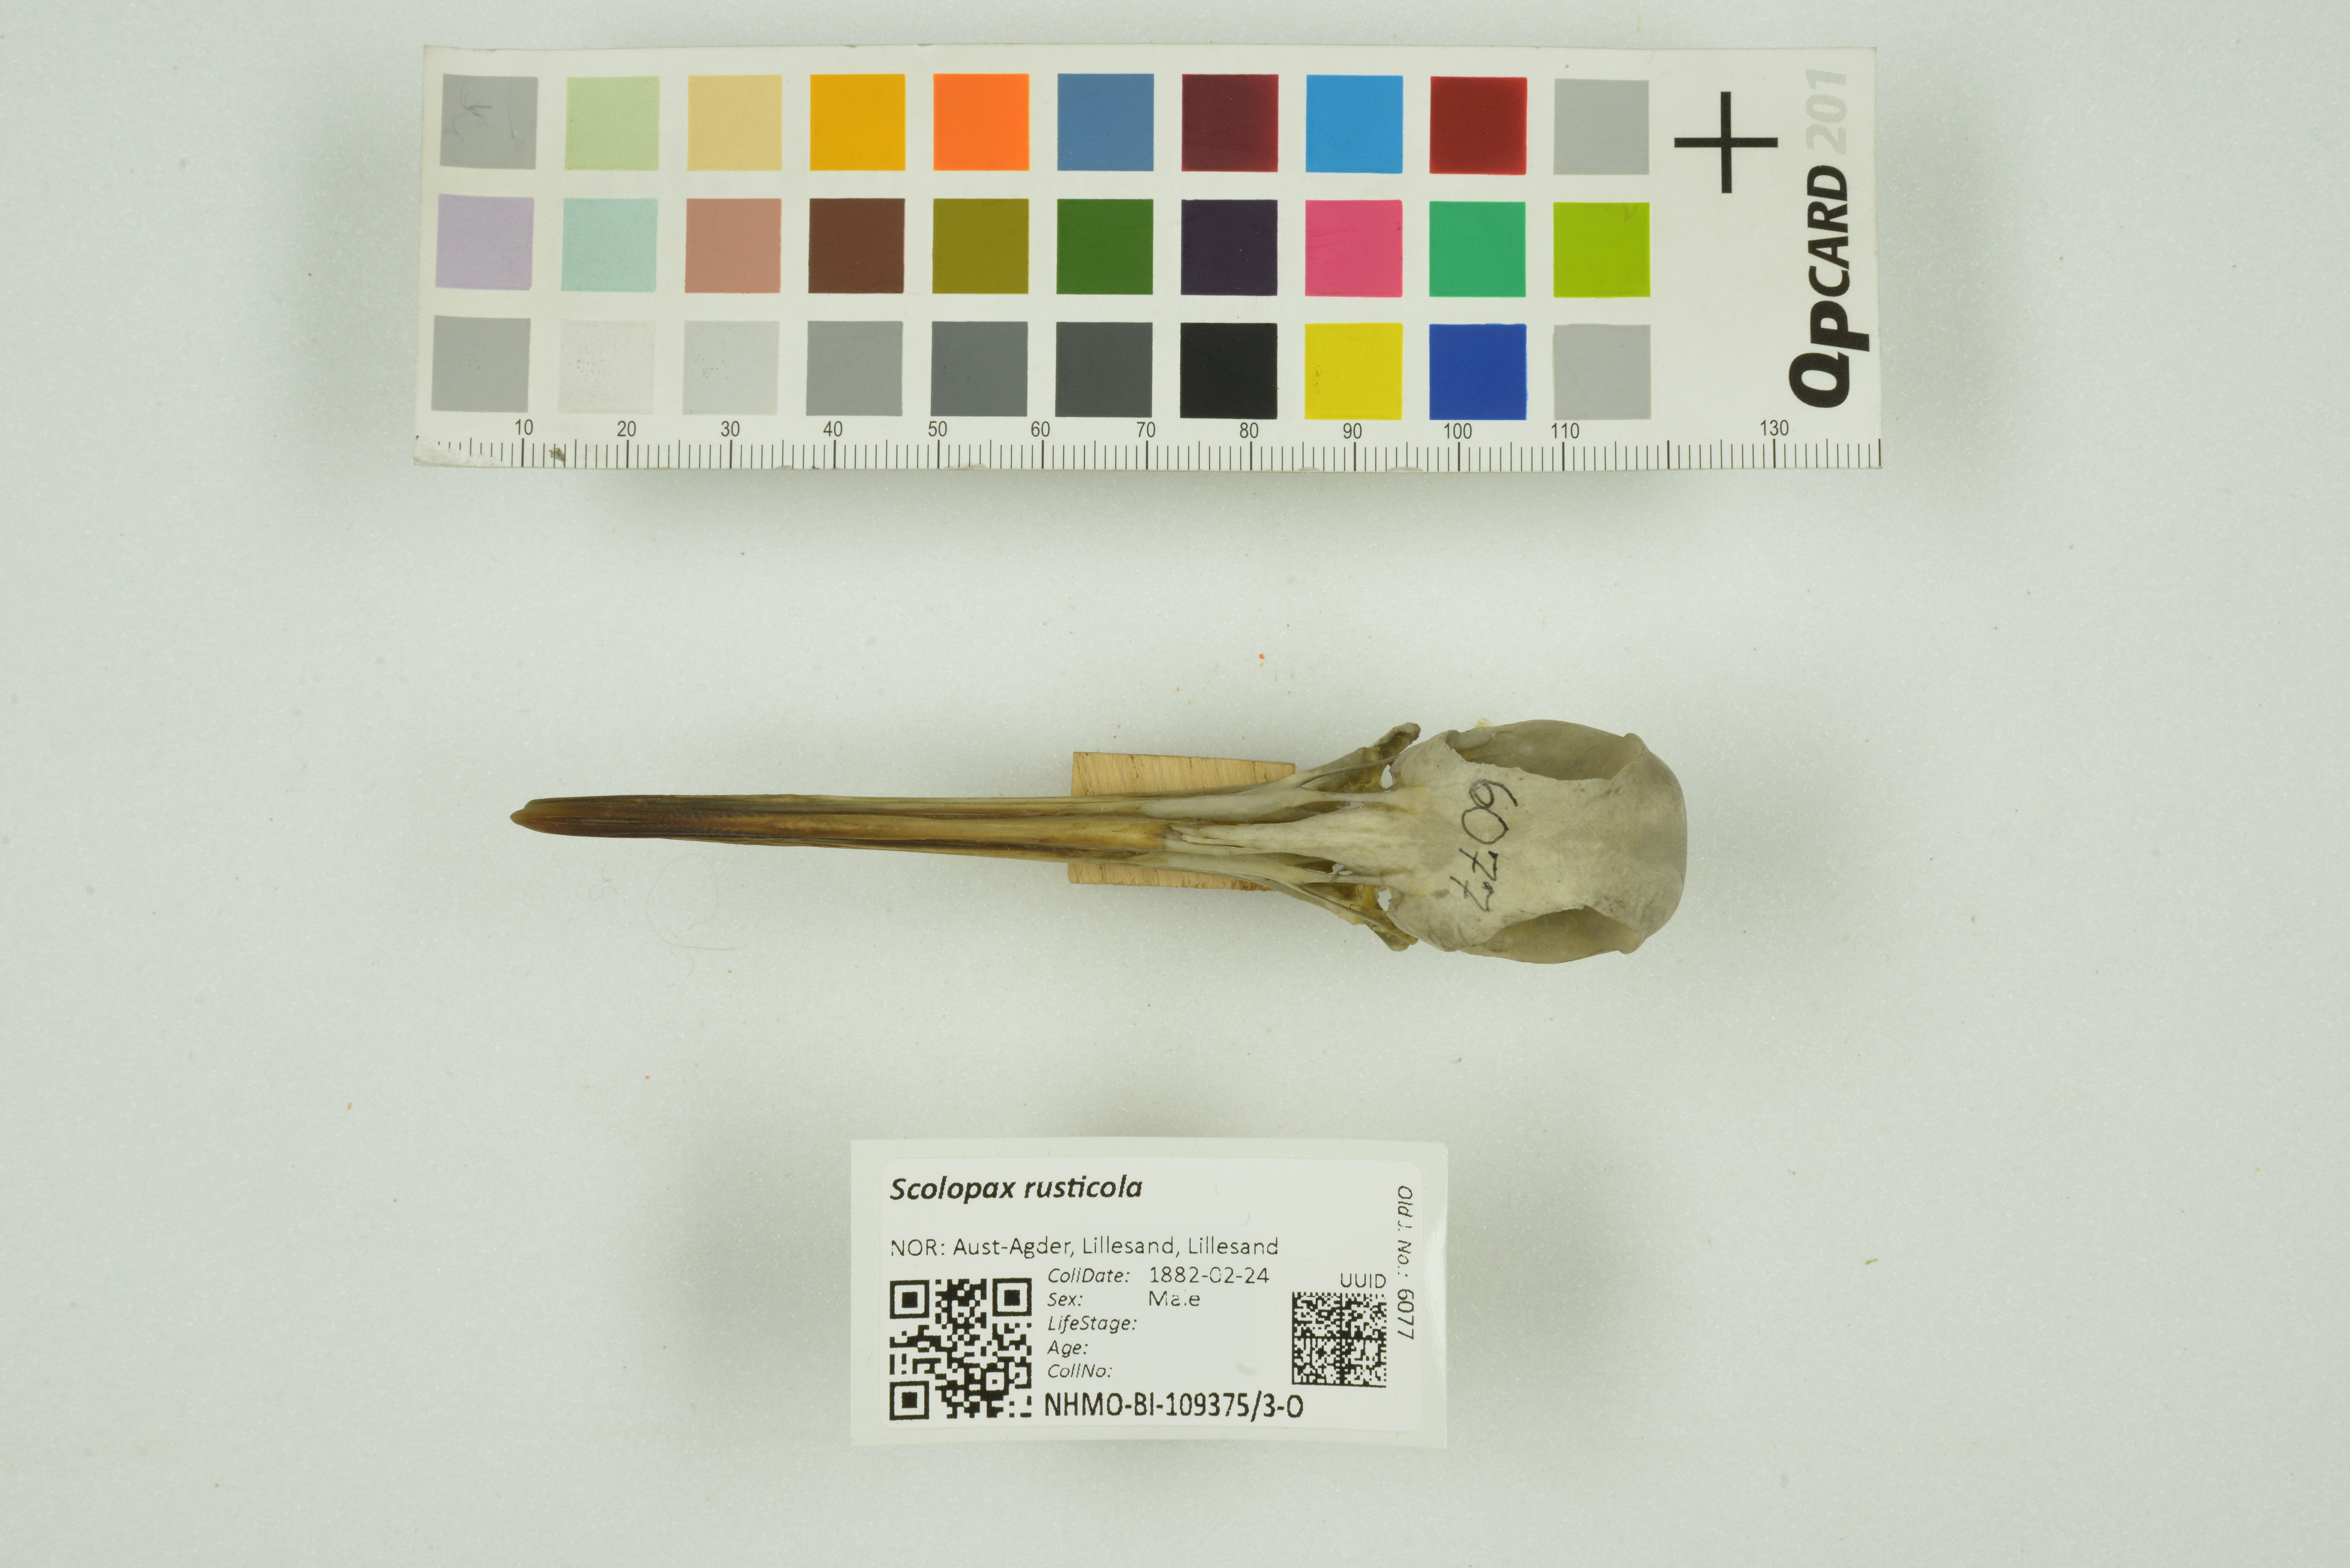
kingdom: Animalia
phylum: Chordata
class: Aves
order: Charadriiformes
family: Scolopacidae
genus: Scolopax
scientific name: Scolopax rusticola
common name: Eurasian woodcock
